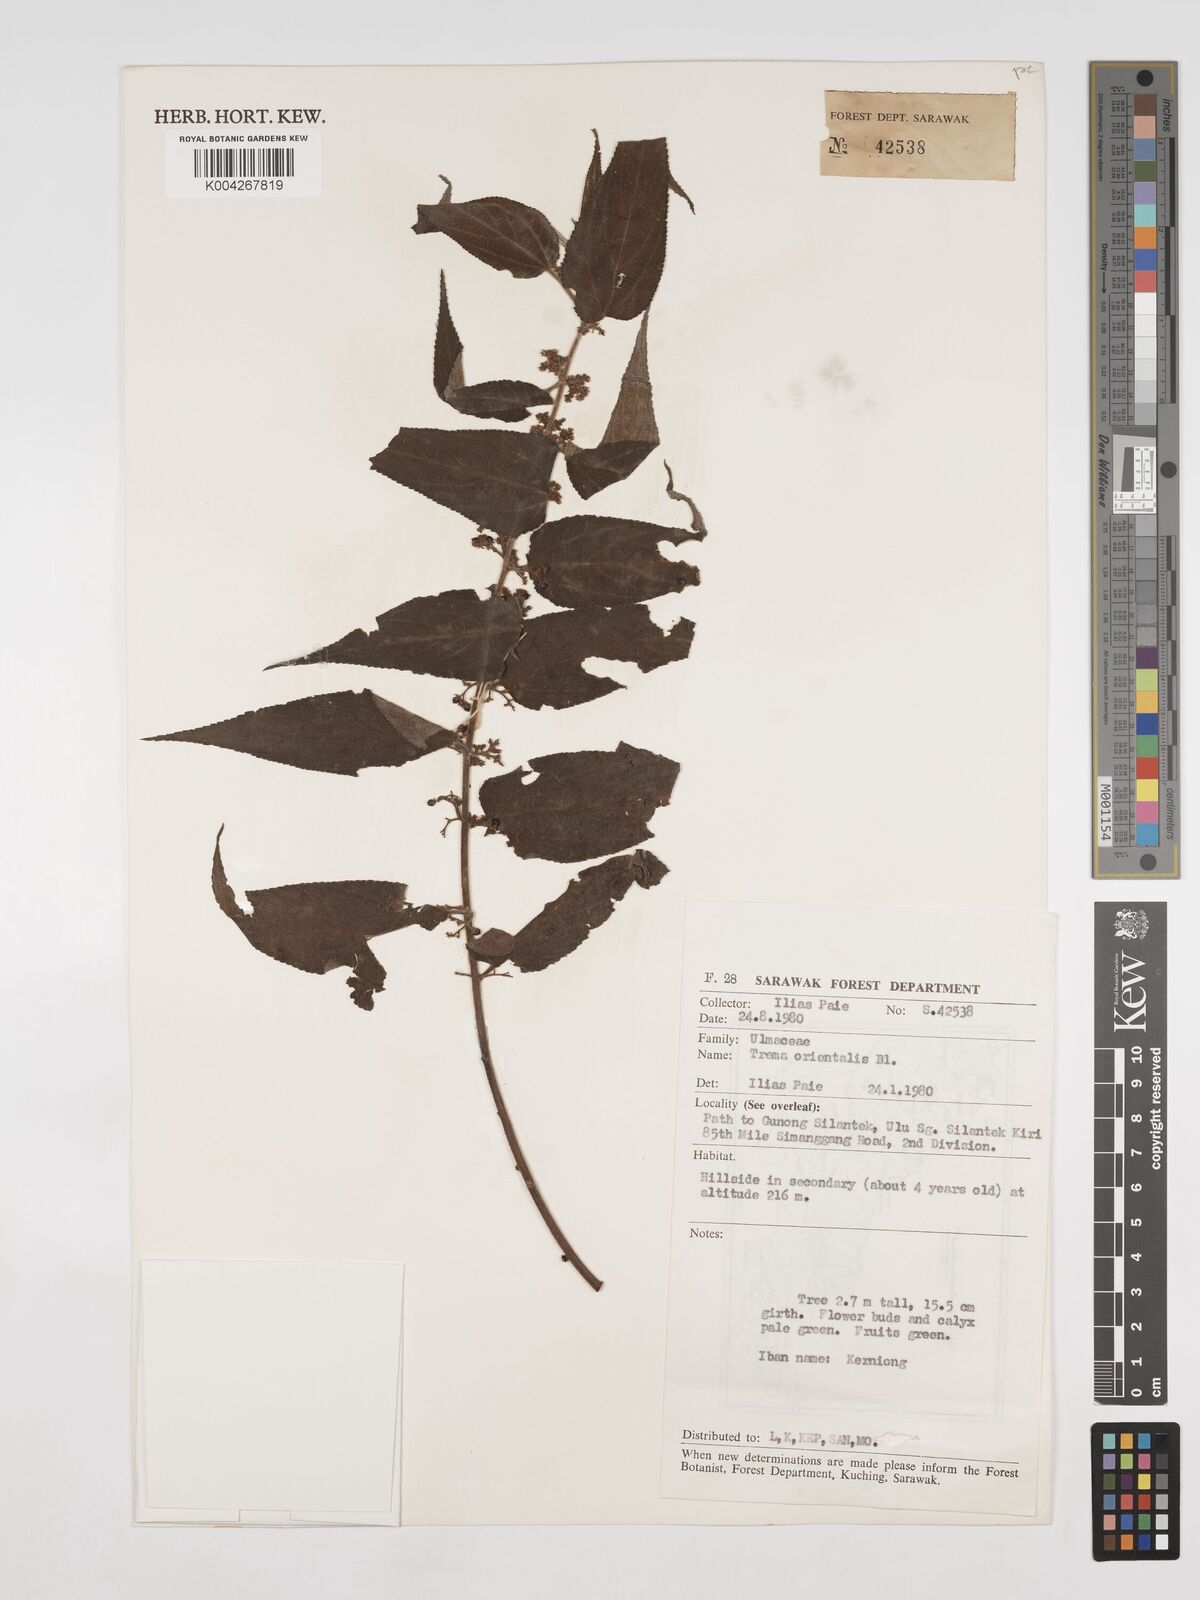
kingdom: Plantae
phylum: Tracheophyta
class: Magnoliopsida
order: Rosales
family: Cannabaceae
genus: Trema
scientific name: Trema orientale
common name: Indian charcoal tree
